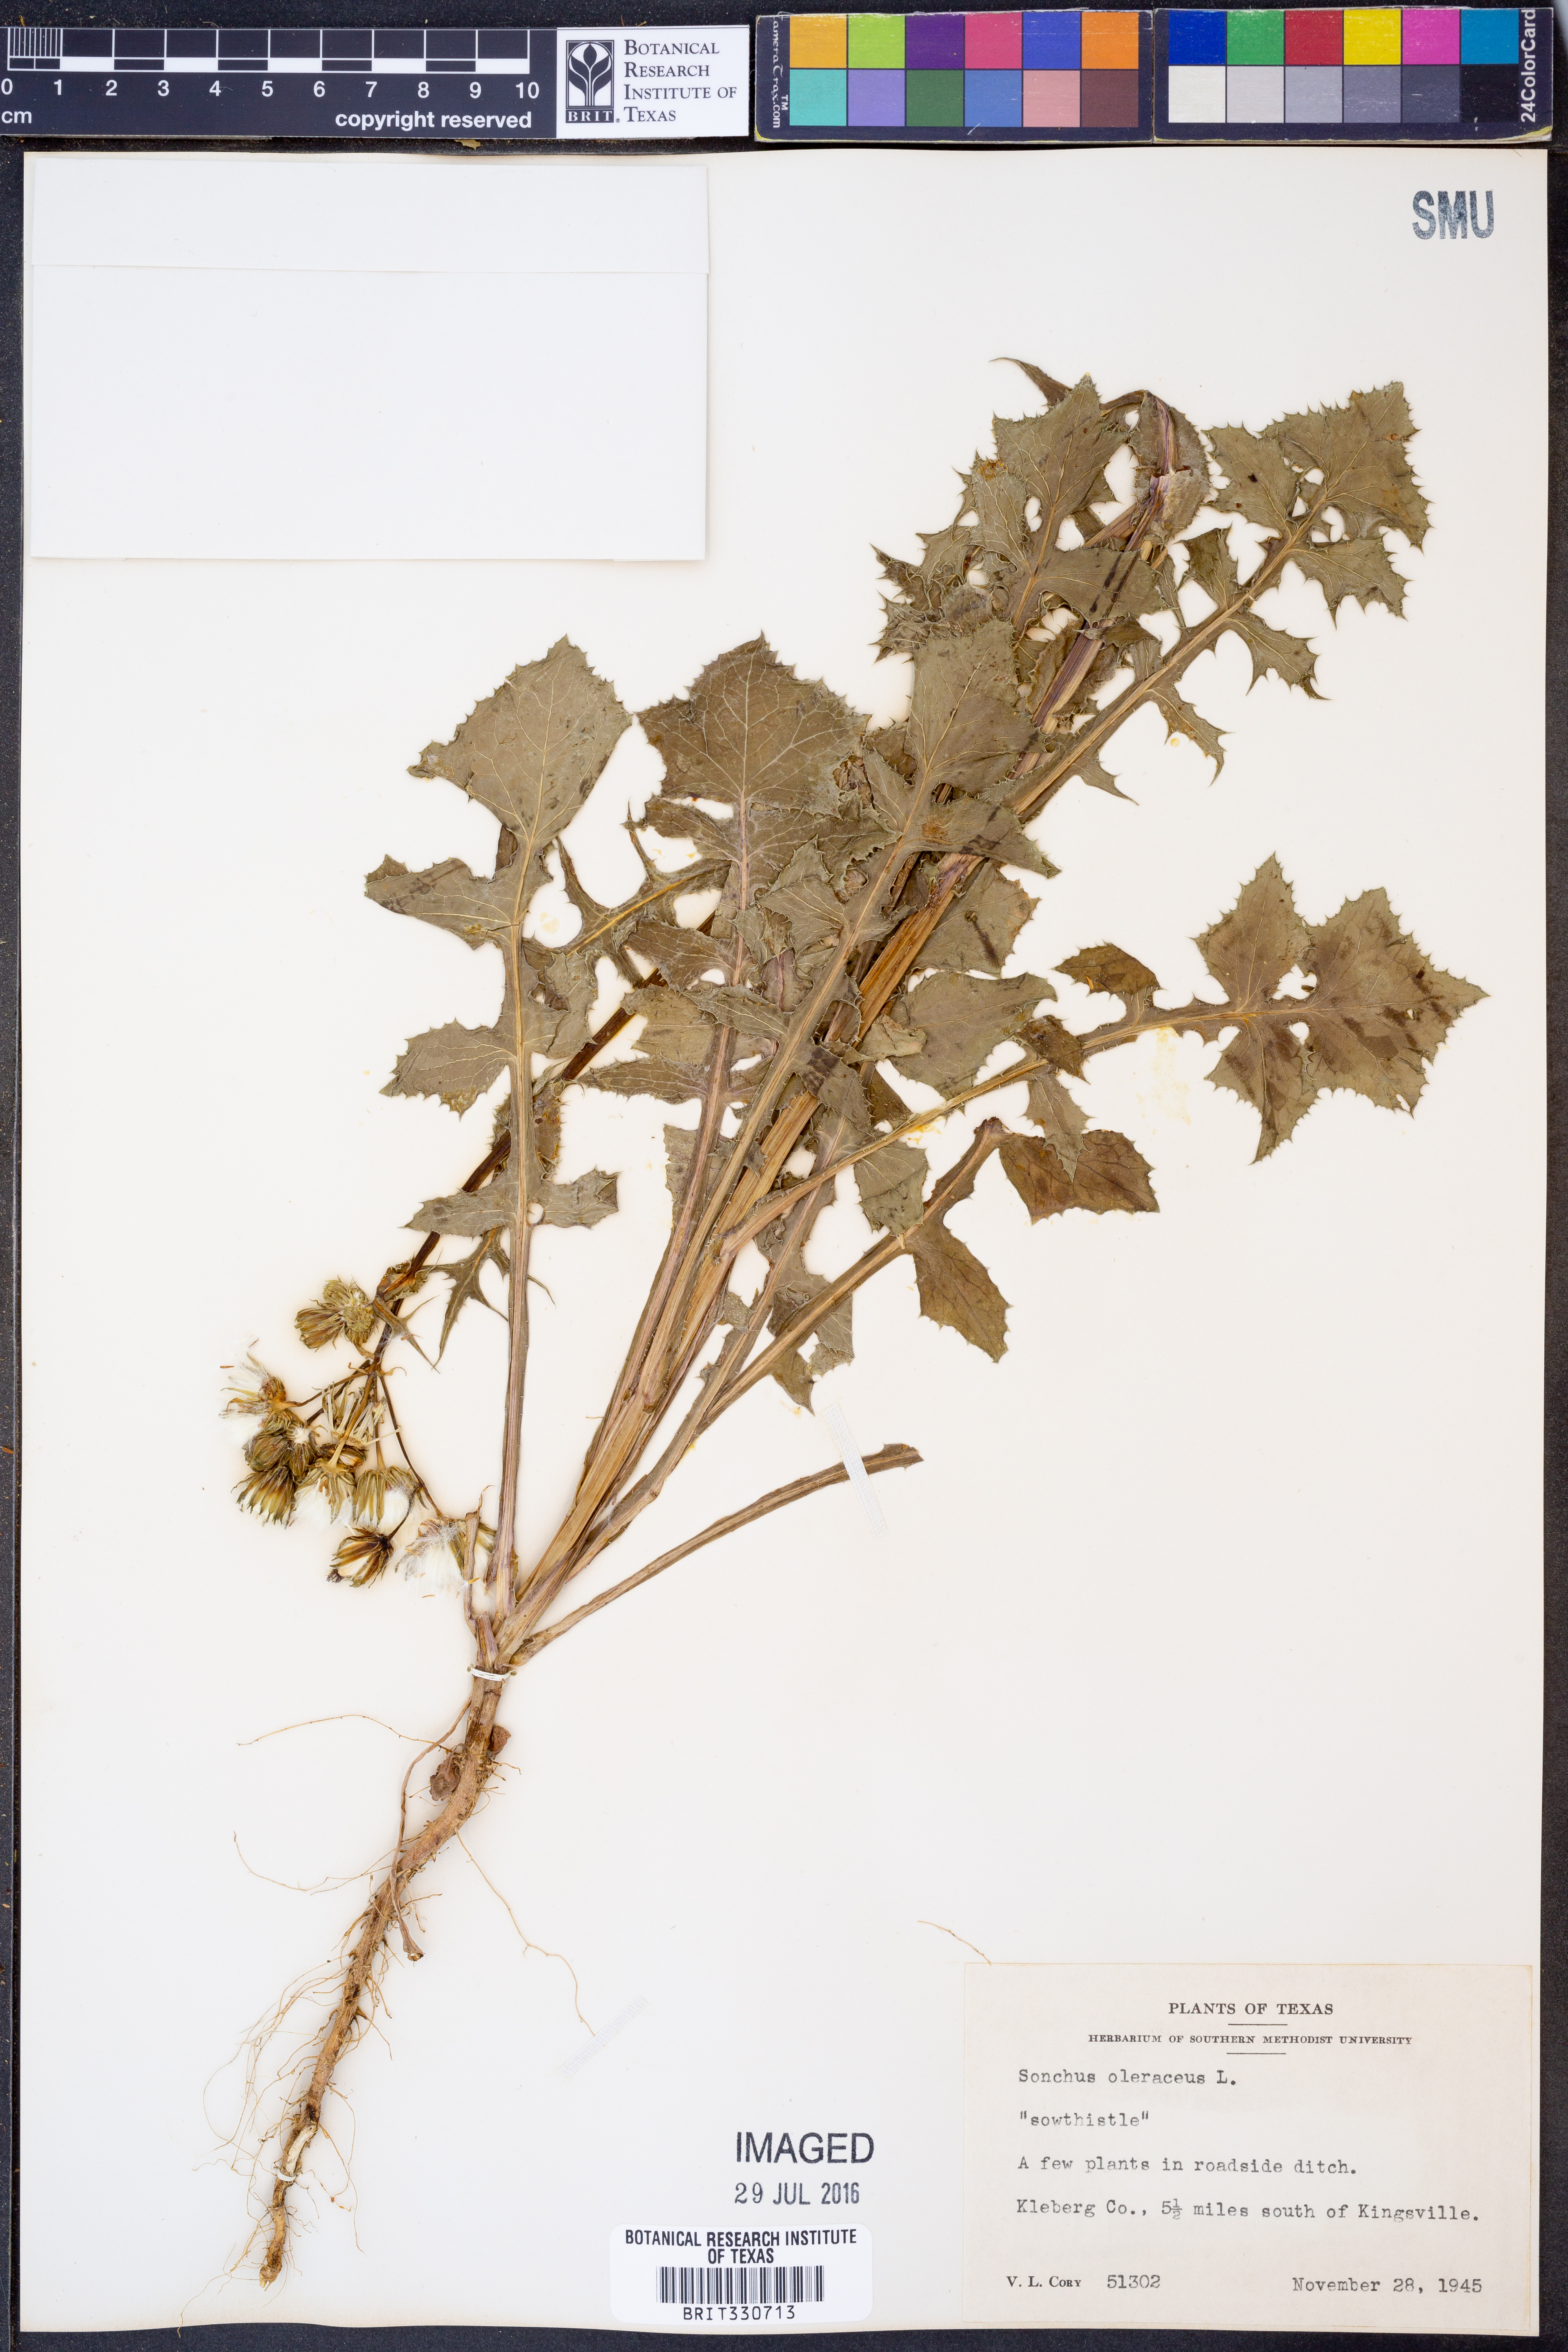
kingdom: Plantae
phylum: Tracheophyta
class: Magnoliopsida
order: Asterales
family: Asteraceae
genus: Sonchus
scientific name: Sonchus oleraceus
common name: Common sowthistle
